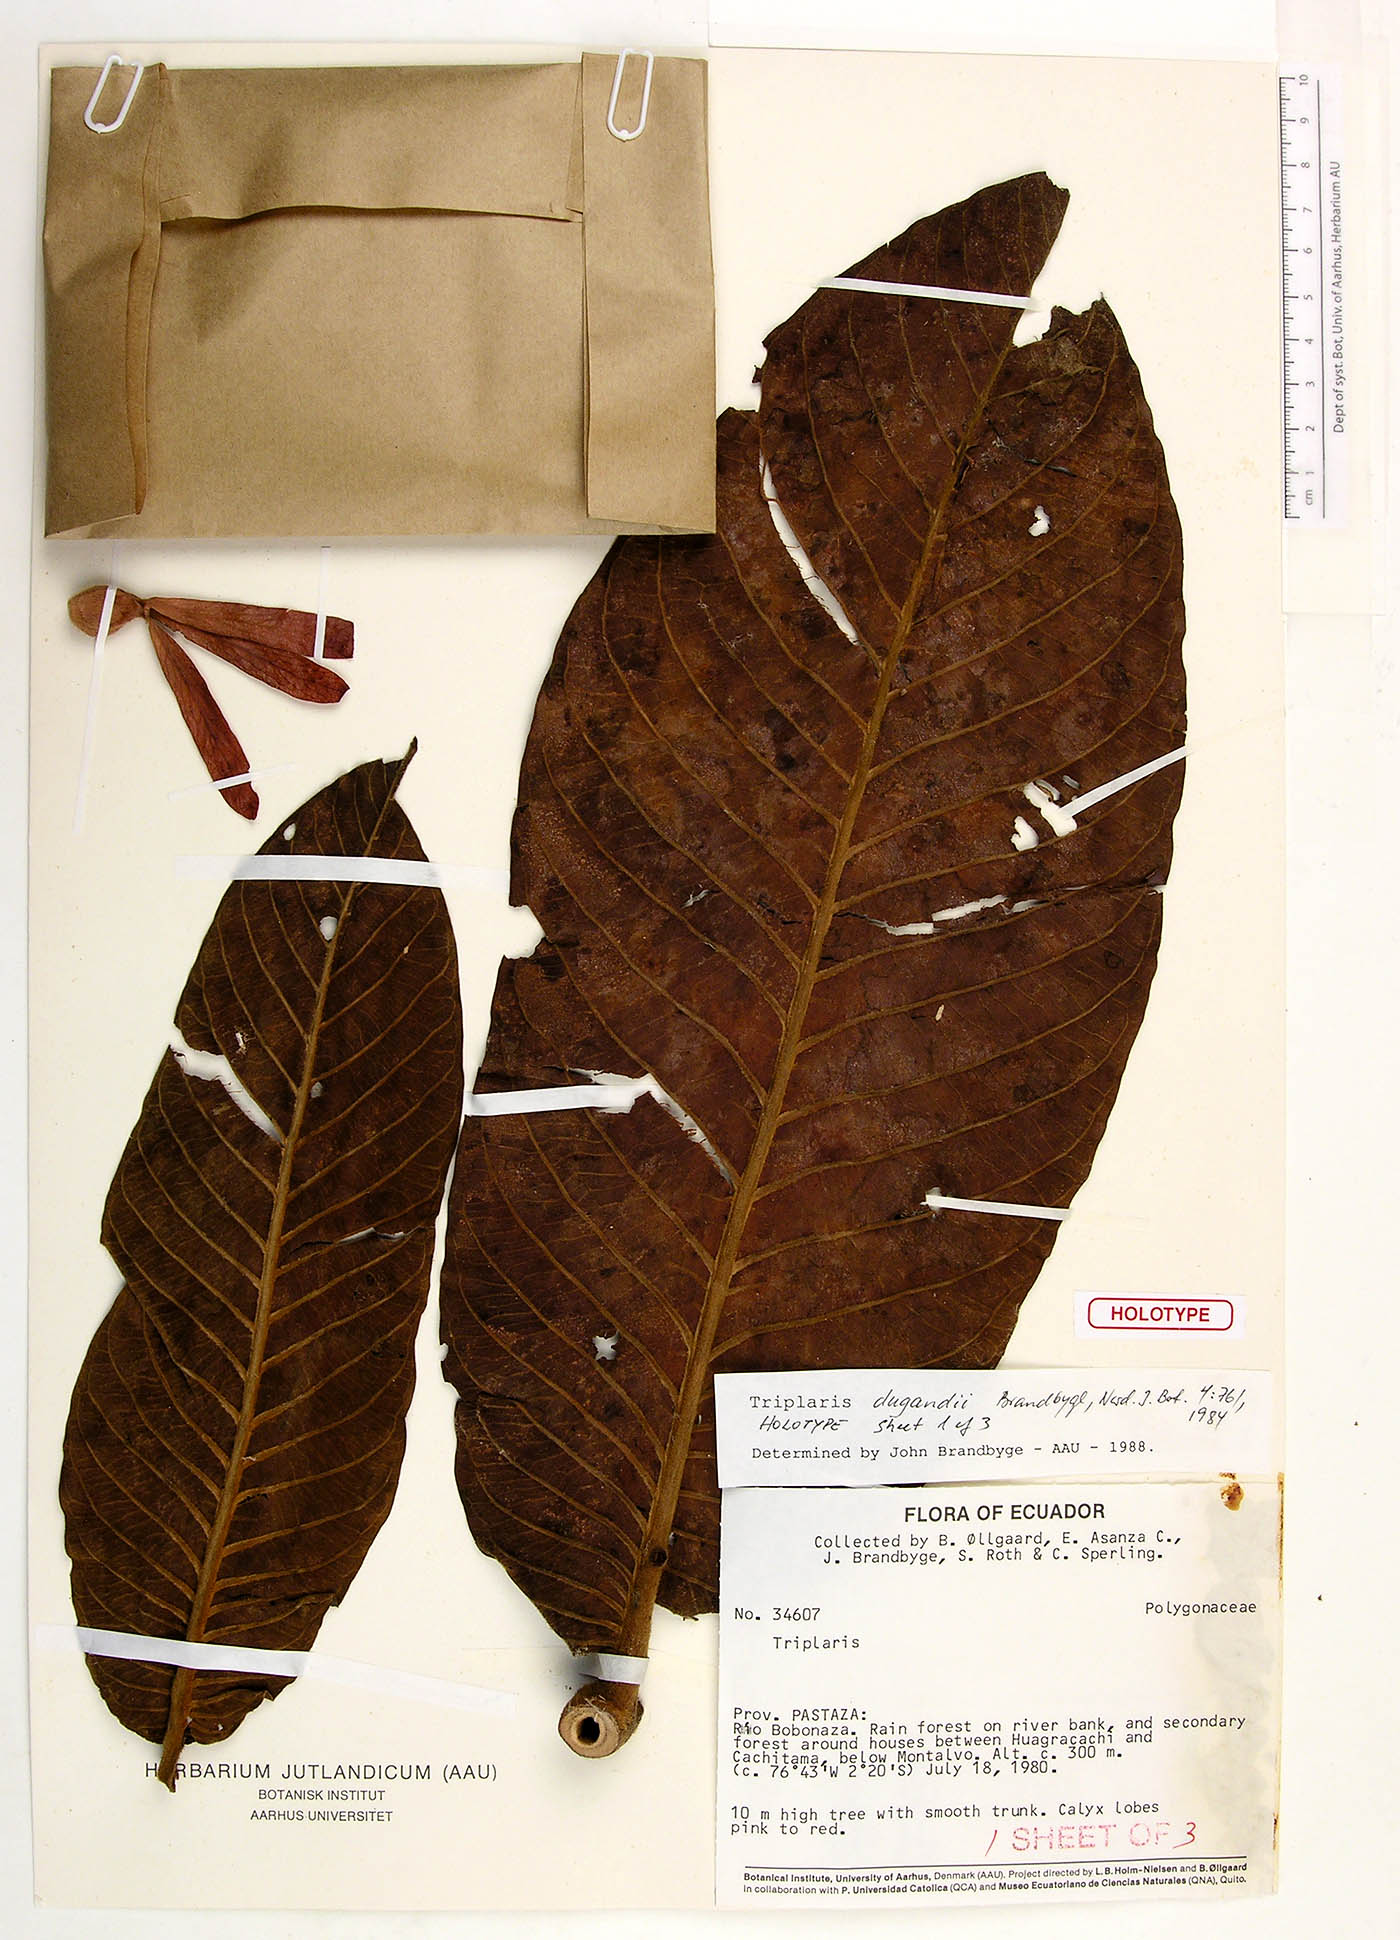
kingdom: Plantae
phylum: Tracheophyta
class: Magnoliopsida
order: Caryophyllales
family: Polygonaceae
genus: Triplaris
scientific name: Triplaris dugandii
